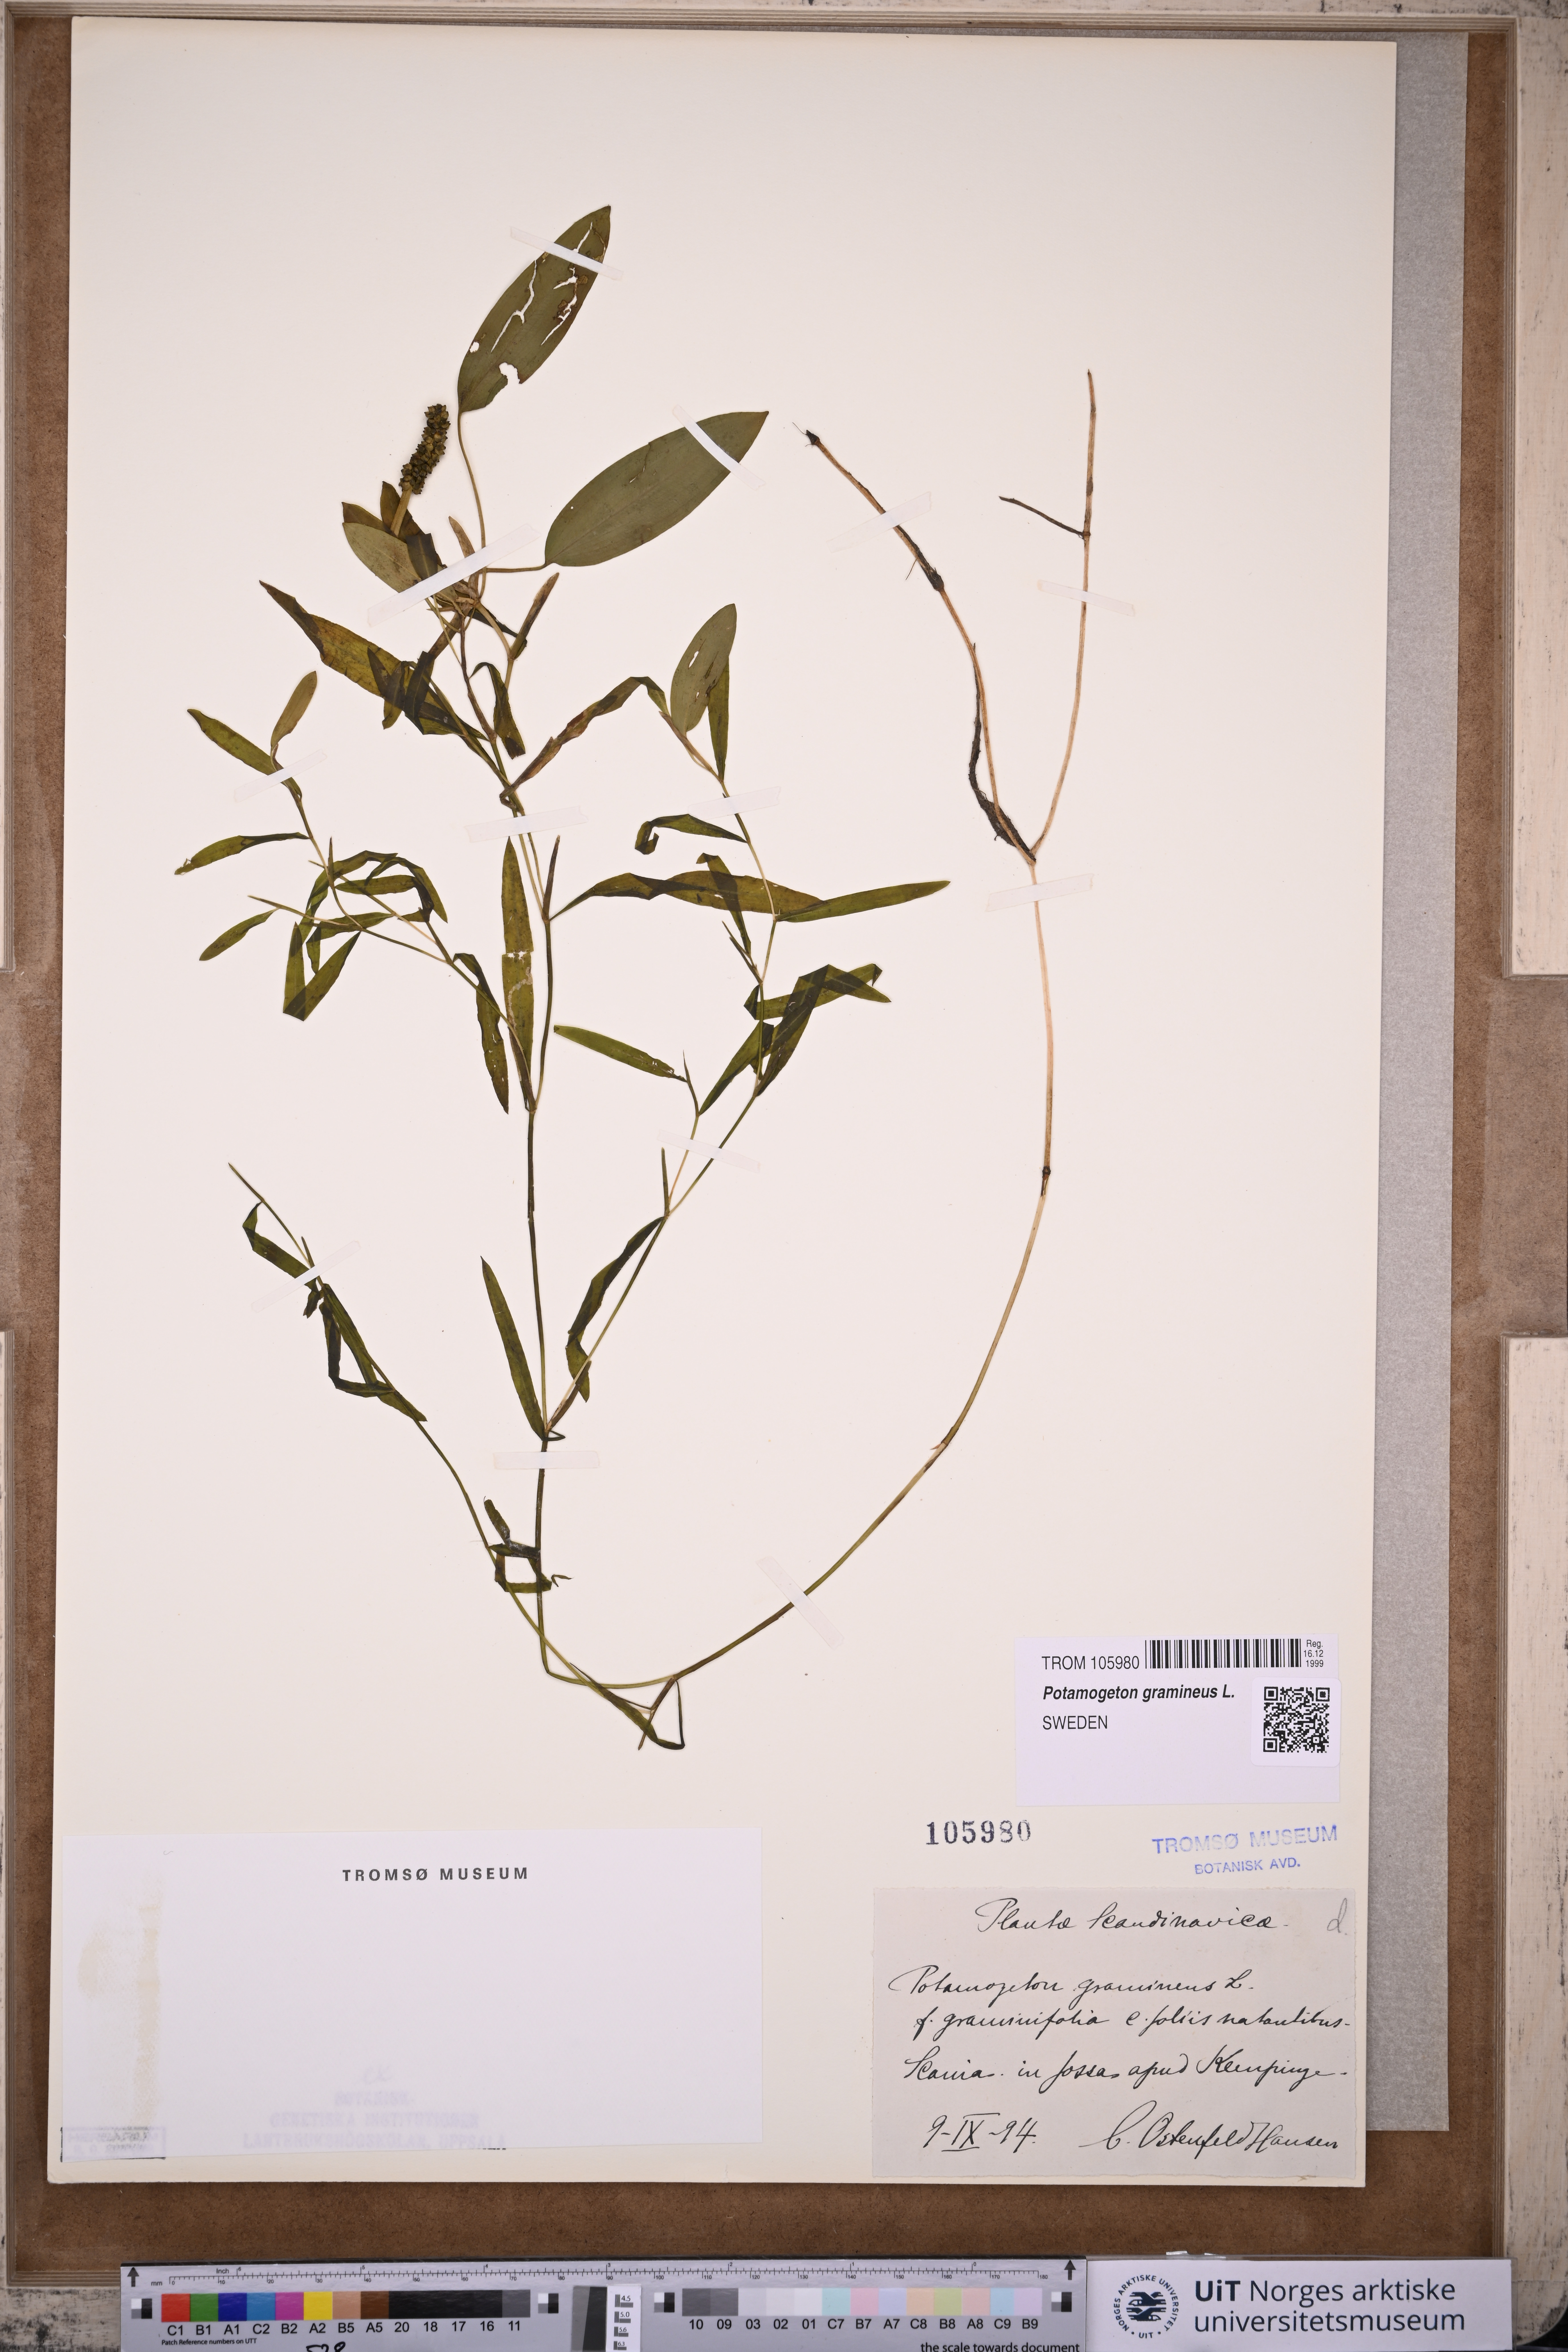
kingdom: Plantae
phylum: Tracheophyta
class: Liliopsida
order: Alismatales
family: Potamogetonaceae
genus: Potamogeton
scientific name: Potamogeton gramineus
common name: Various-leaved pondweed
